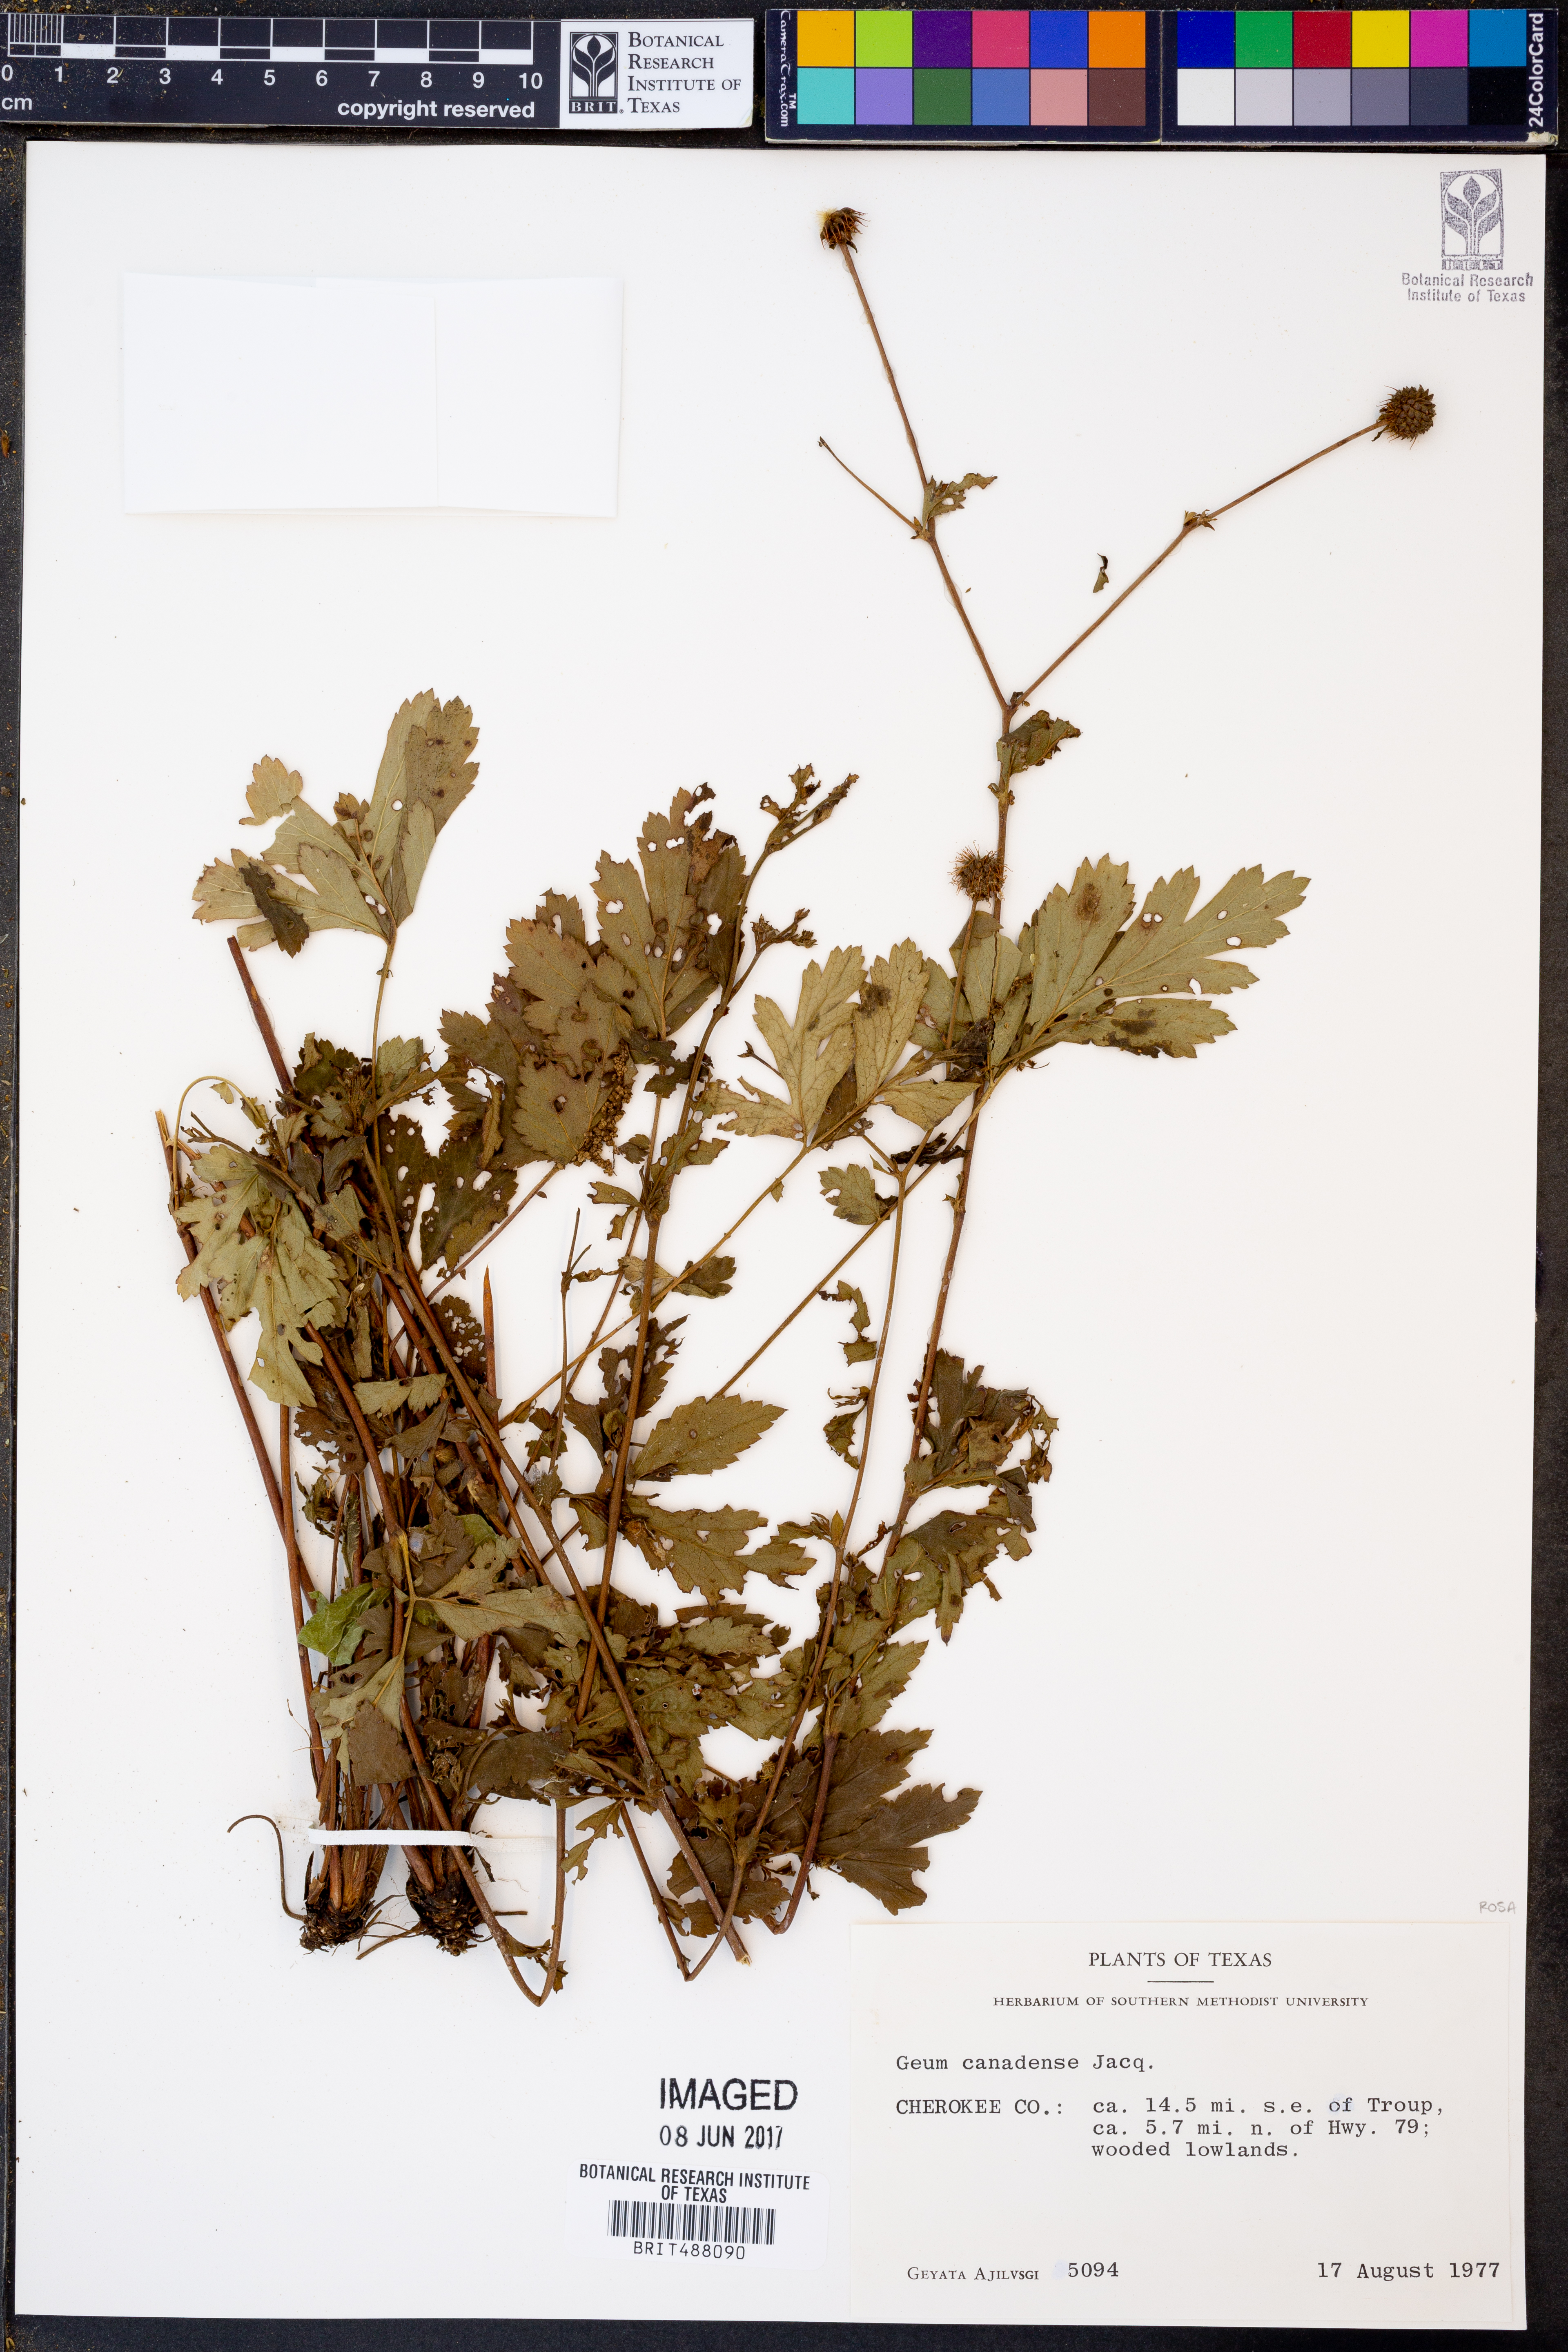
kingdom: Plantae
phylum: Tracheophyta
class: Magnoliopsida
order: Rosales
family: Rosaceae
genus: Geum
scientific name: Geum canadense
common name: White avens
